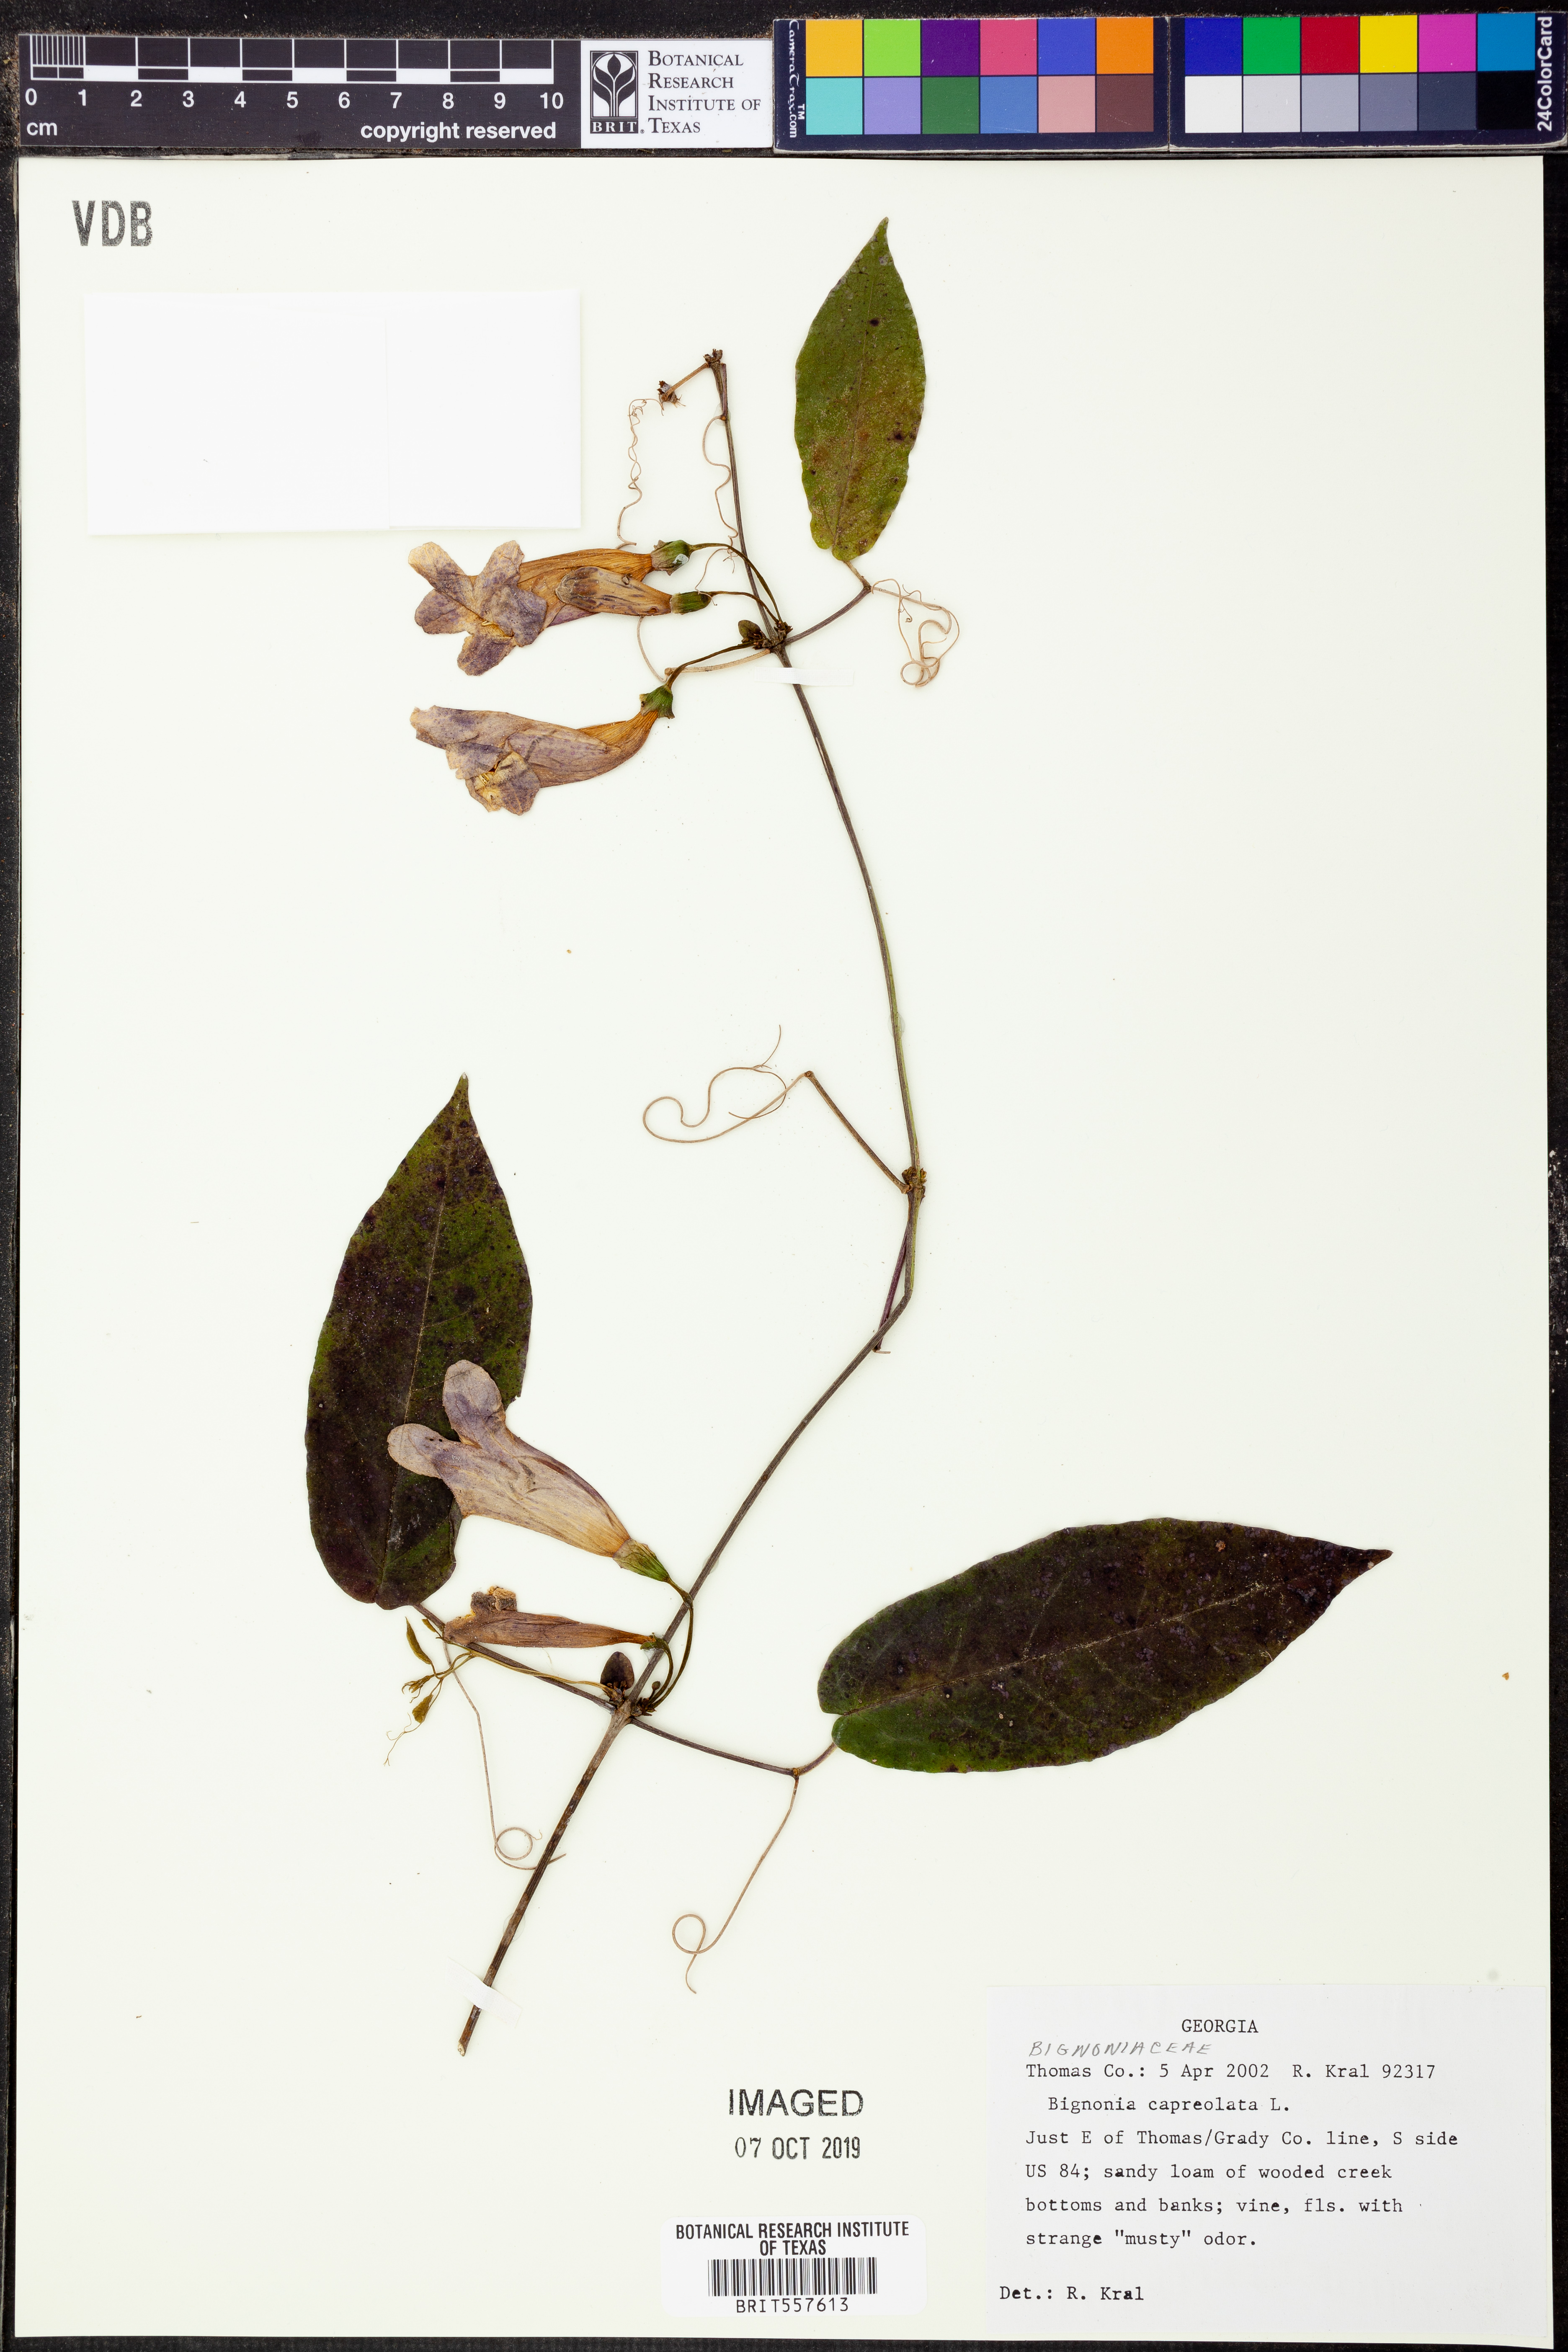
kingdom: Plantae
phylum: Tracheophyta
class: Magnoliopsida
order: Lamiales
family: Bignoniaceae
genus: Bignonia
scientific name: Bignonia capreolata
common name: Crossvine
